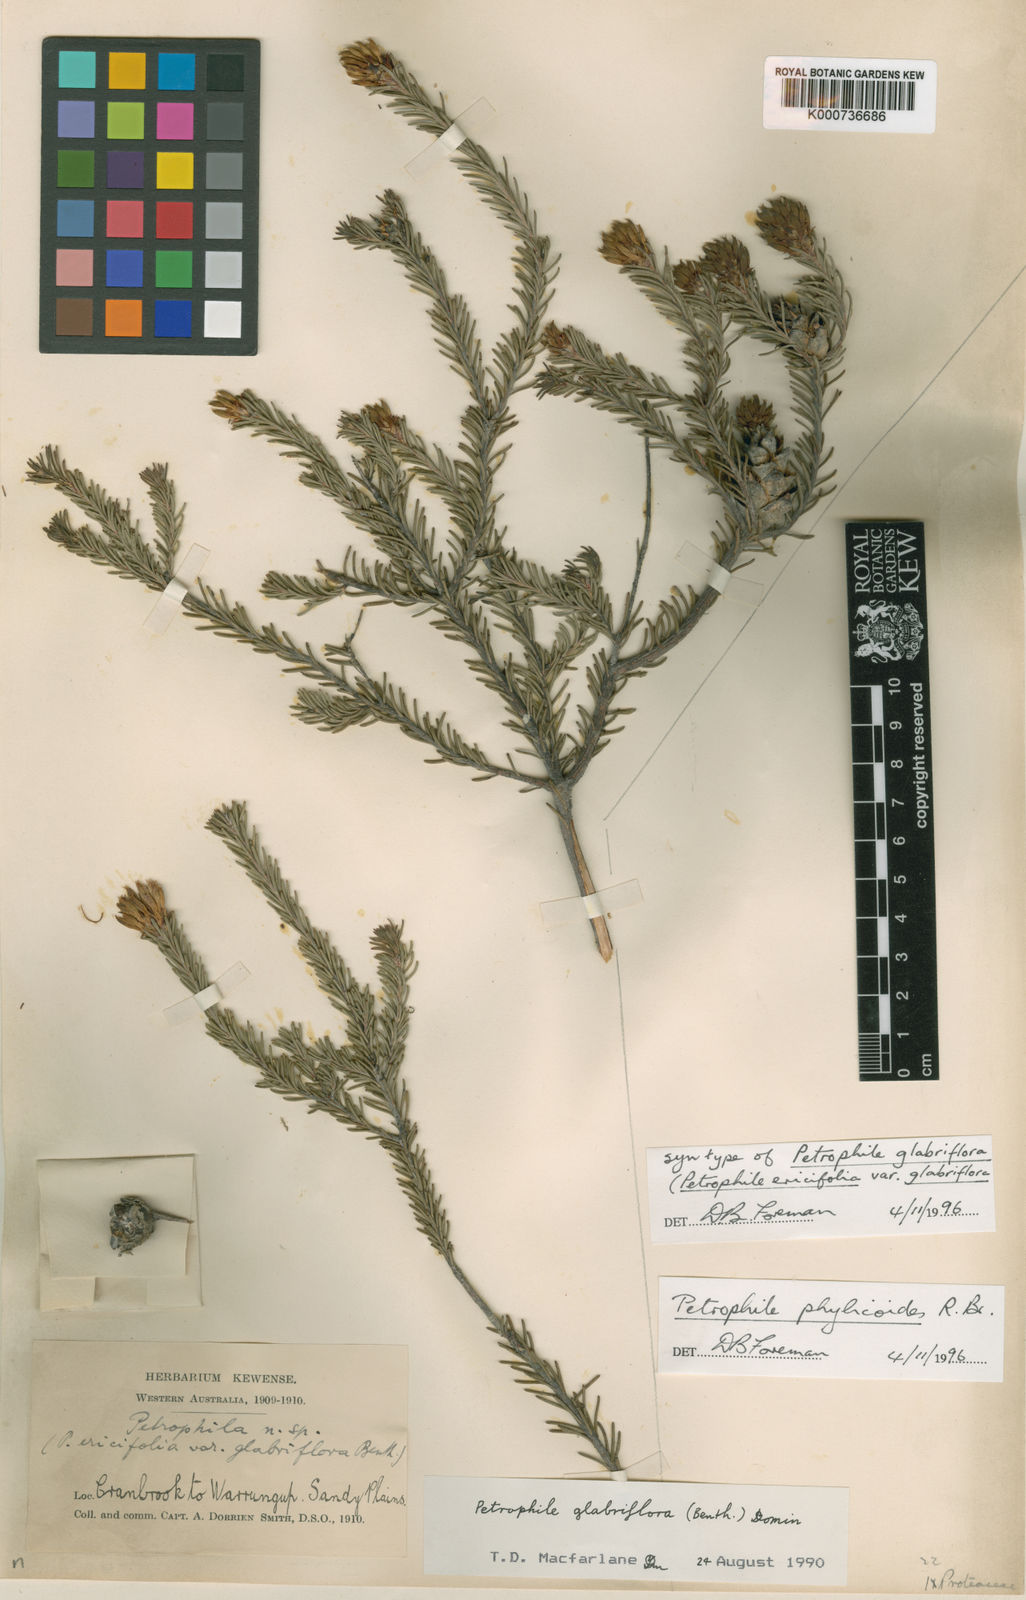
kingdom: Plantae
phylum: Tracheophyta
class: Magnoliopsida
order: Proteales
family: Proteaceae
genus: Petrophile
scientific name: Petrophile phylicoides
